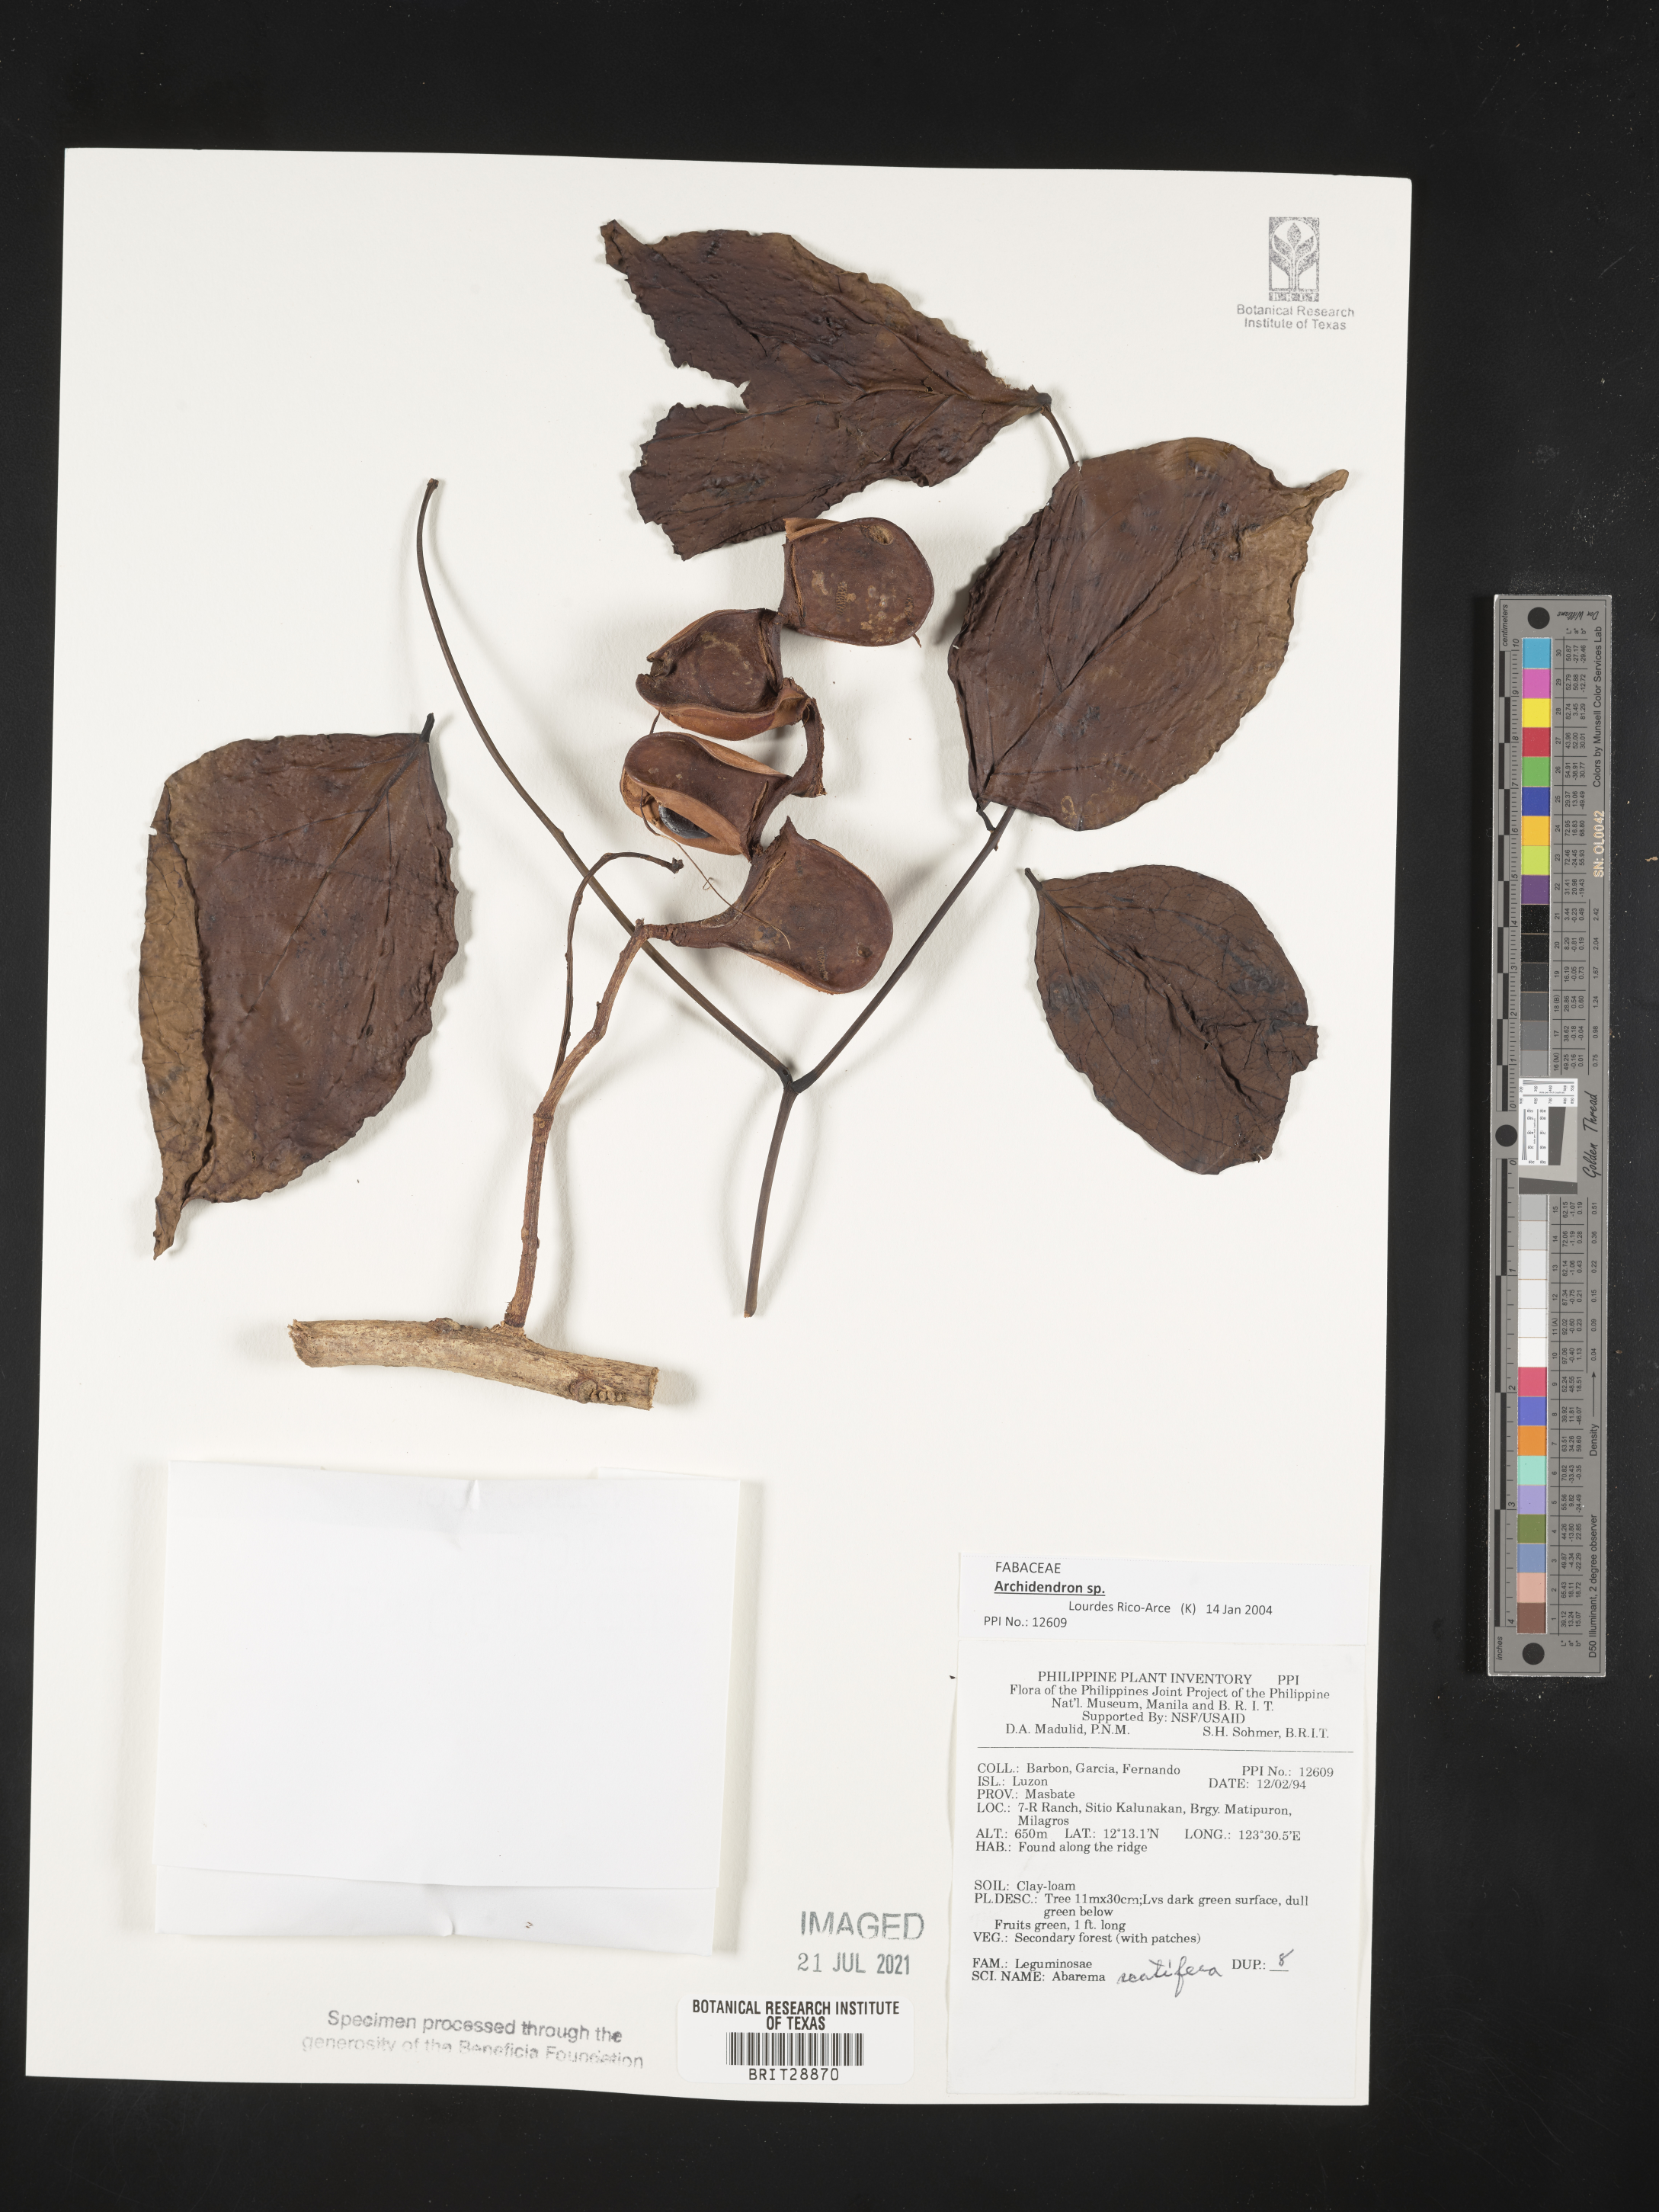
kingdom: Plantae
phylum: Tracheophyta
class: Magnoliopsida
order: Fabales
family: Fabaceae
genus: Archidendron
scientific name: Archidendron
